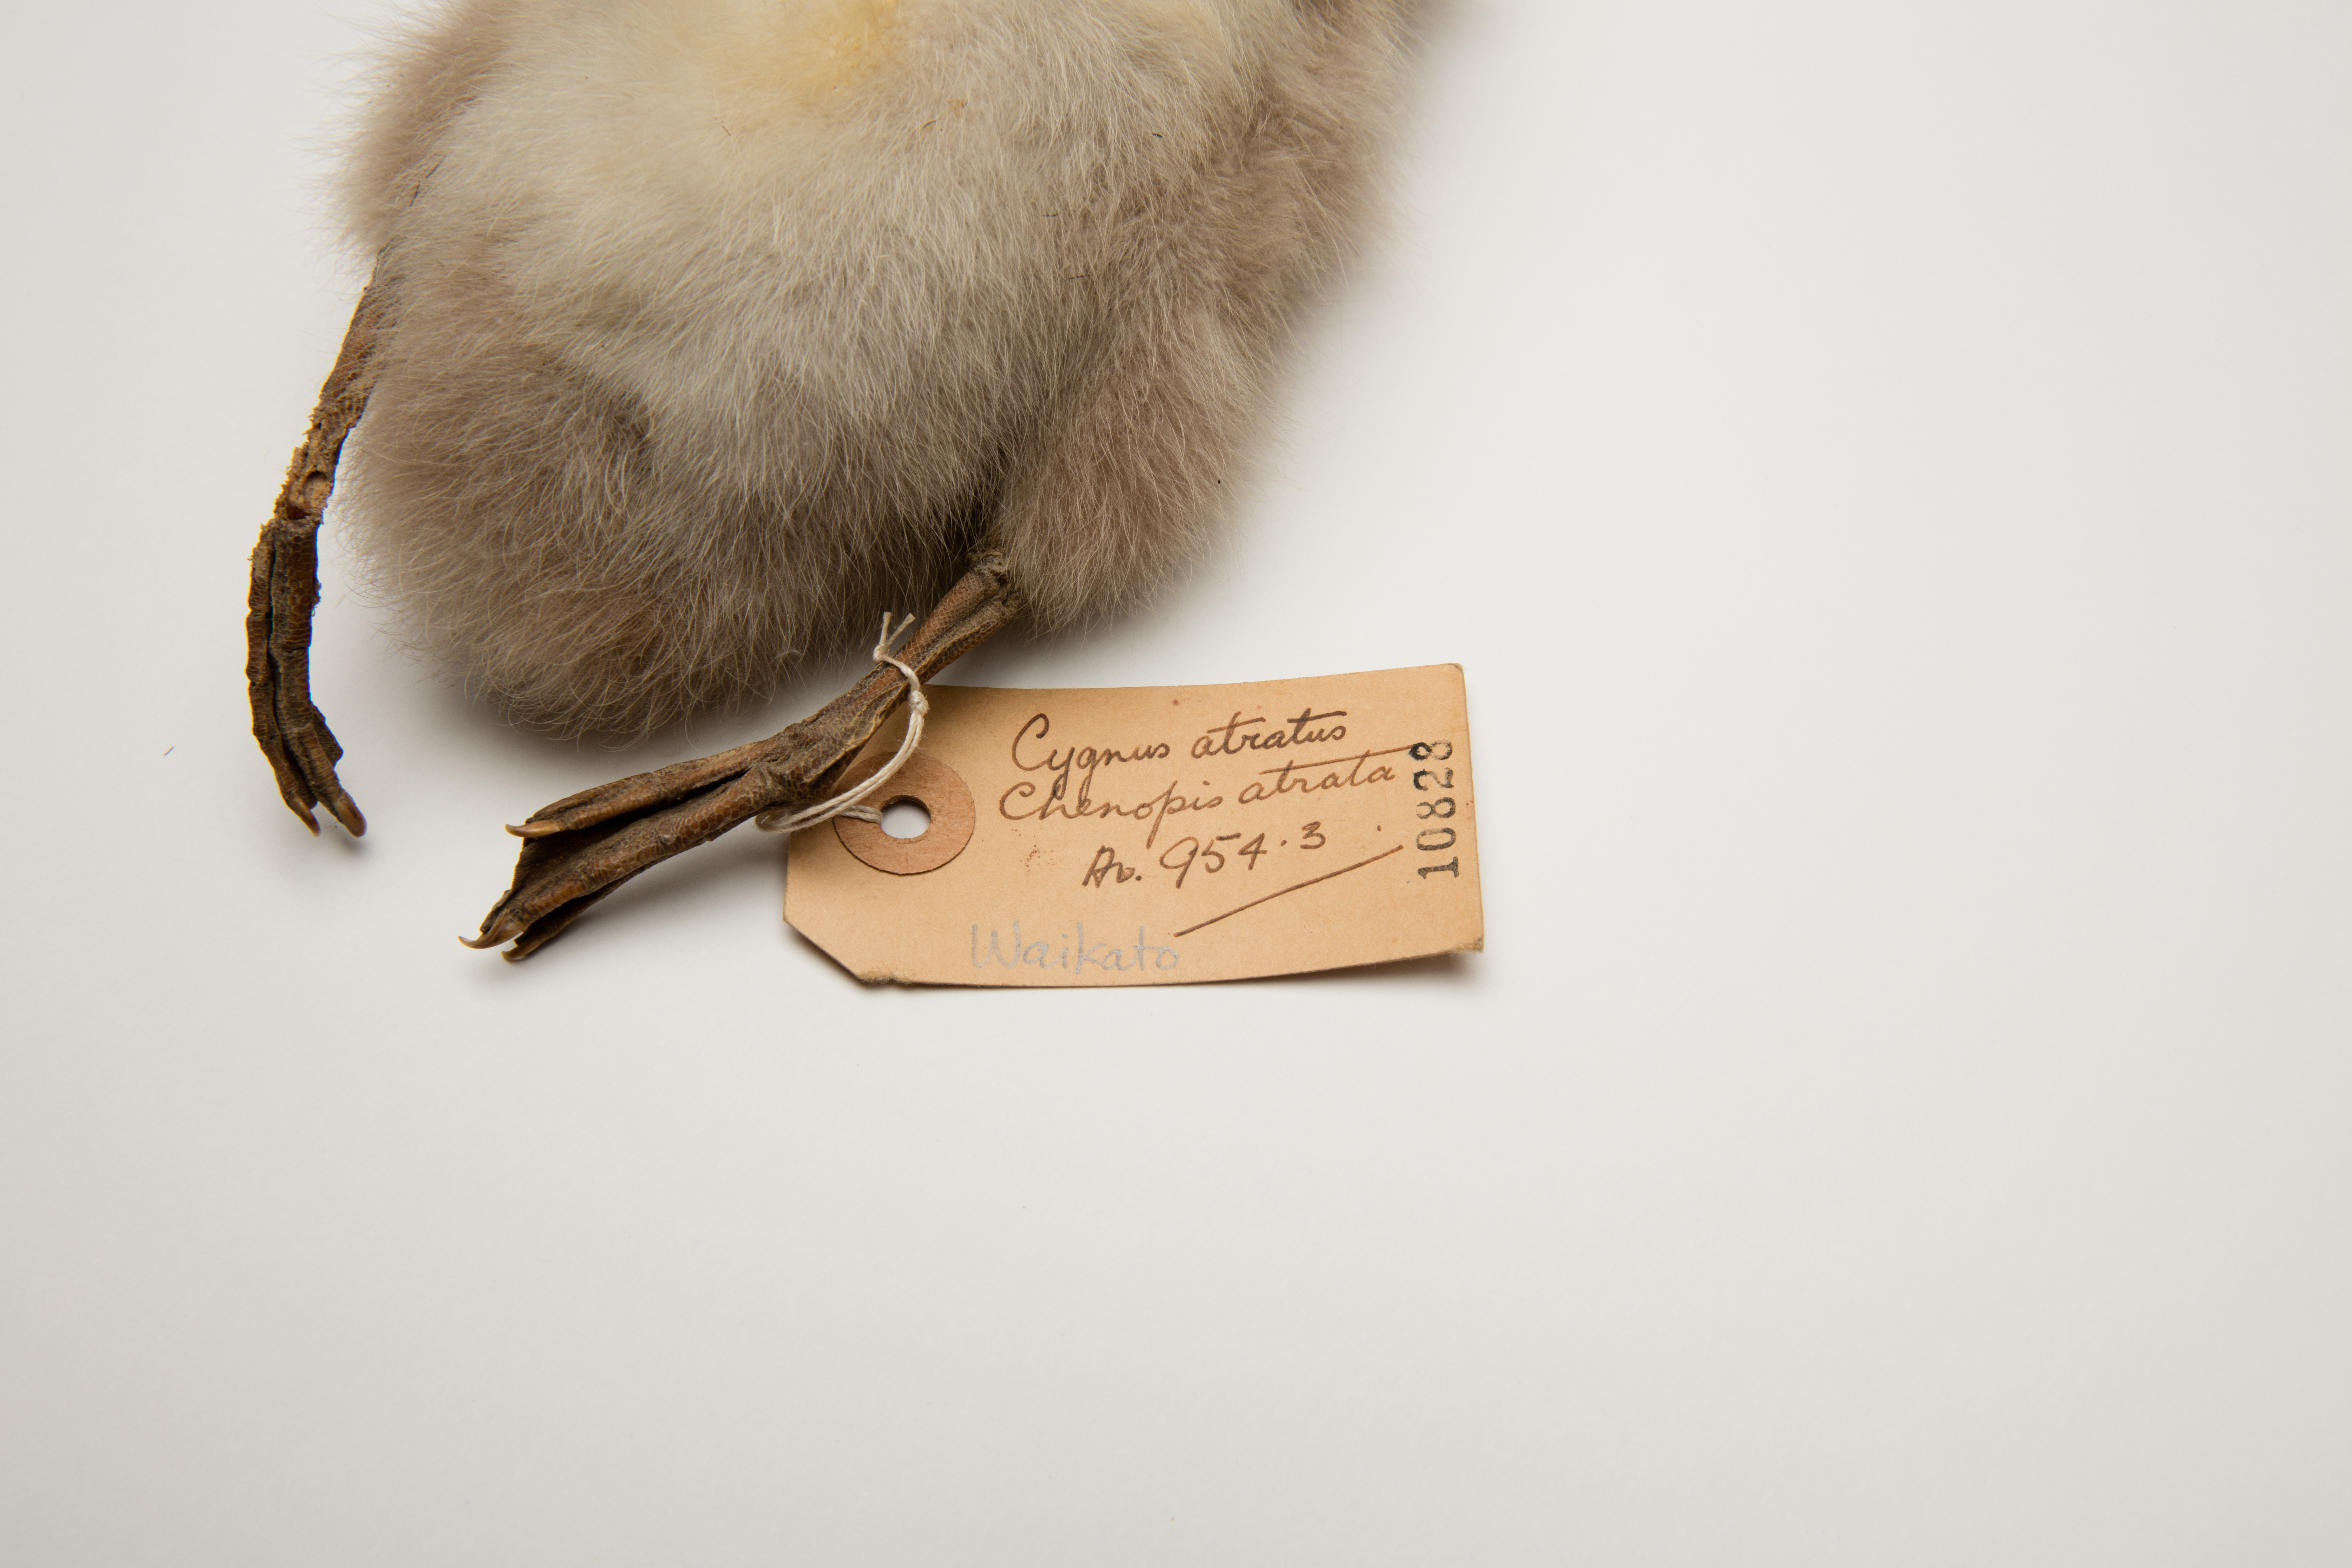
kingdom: Animalia
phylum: Chordata
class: Aves
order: Anseriformes
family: Anatidae
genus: Cygnus
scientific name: Cygnus atratus
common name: Black swan
